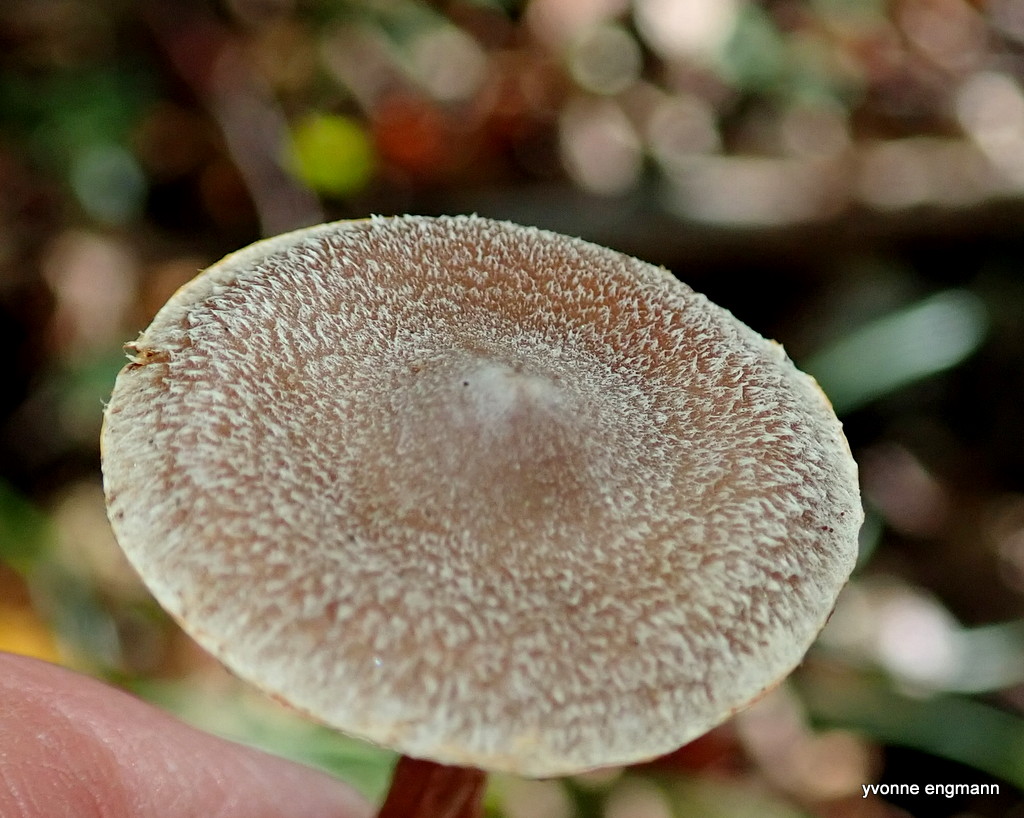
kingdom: Fungi
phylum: Basidiomycota
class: Agaricomycetes
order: Agaricales
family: Cortinariaceae
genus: Cortinarius
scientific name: Cortinarius geraniolens
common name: geranium-slørhat
